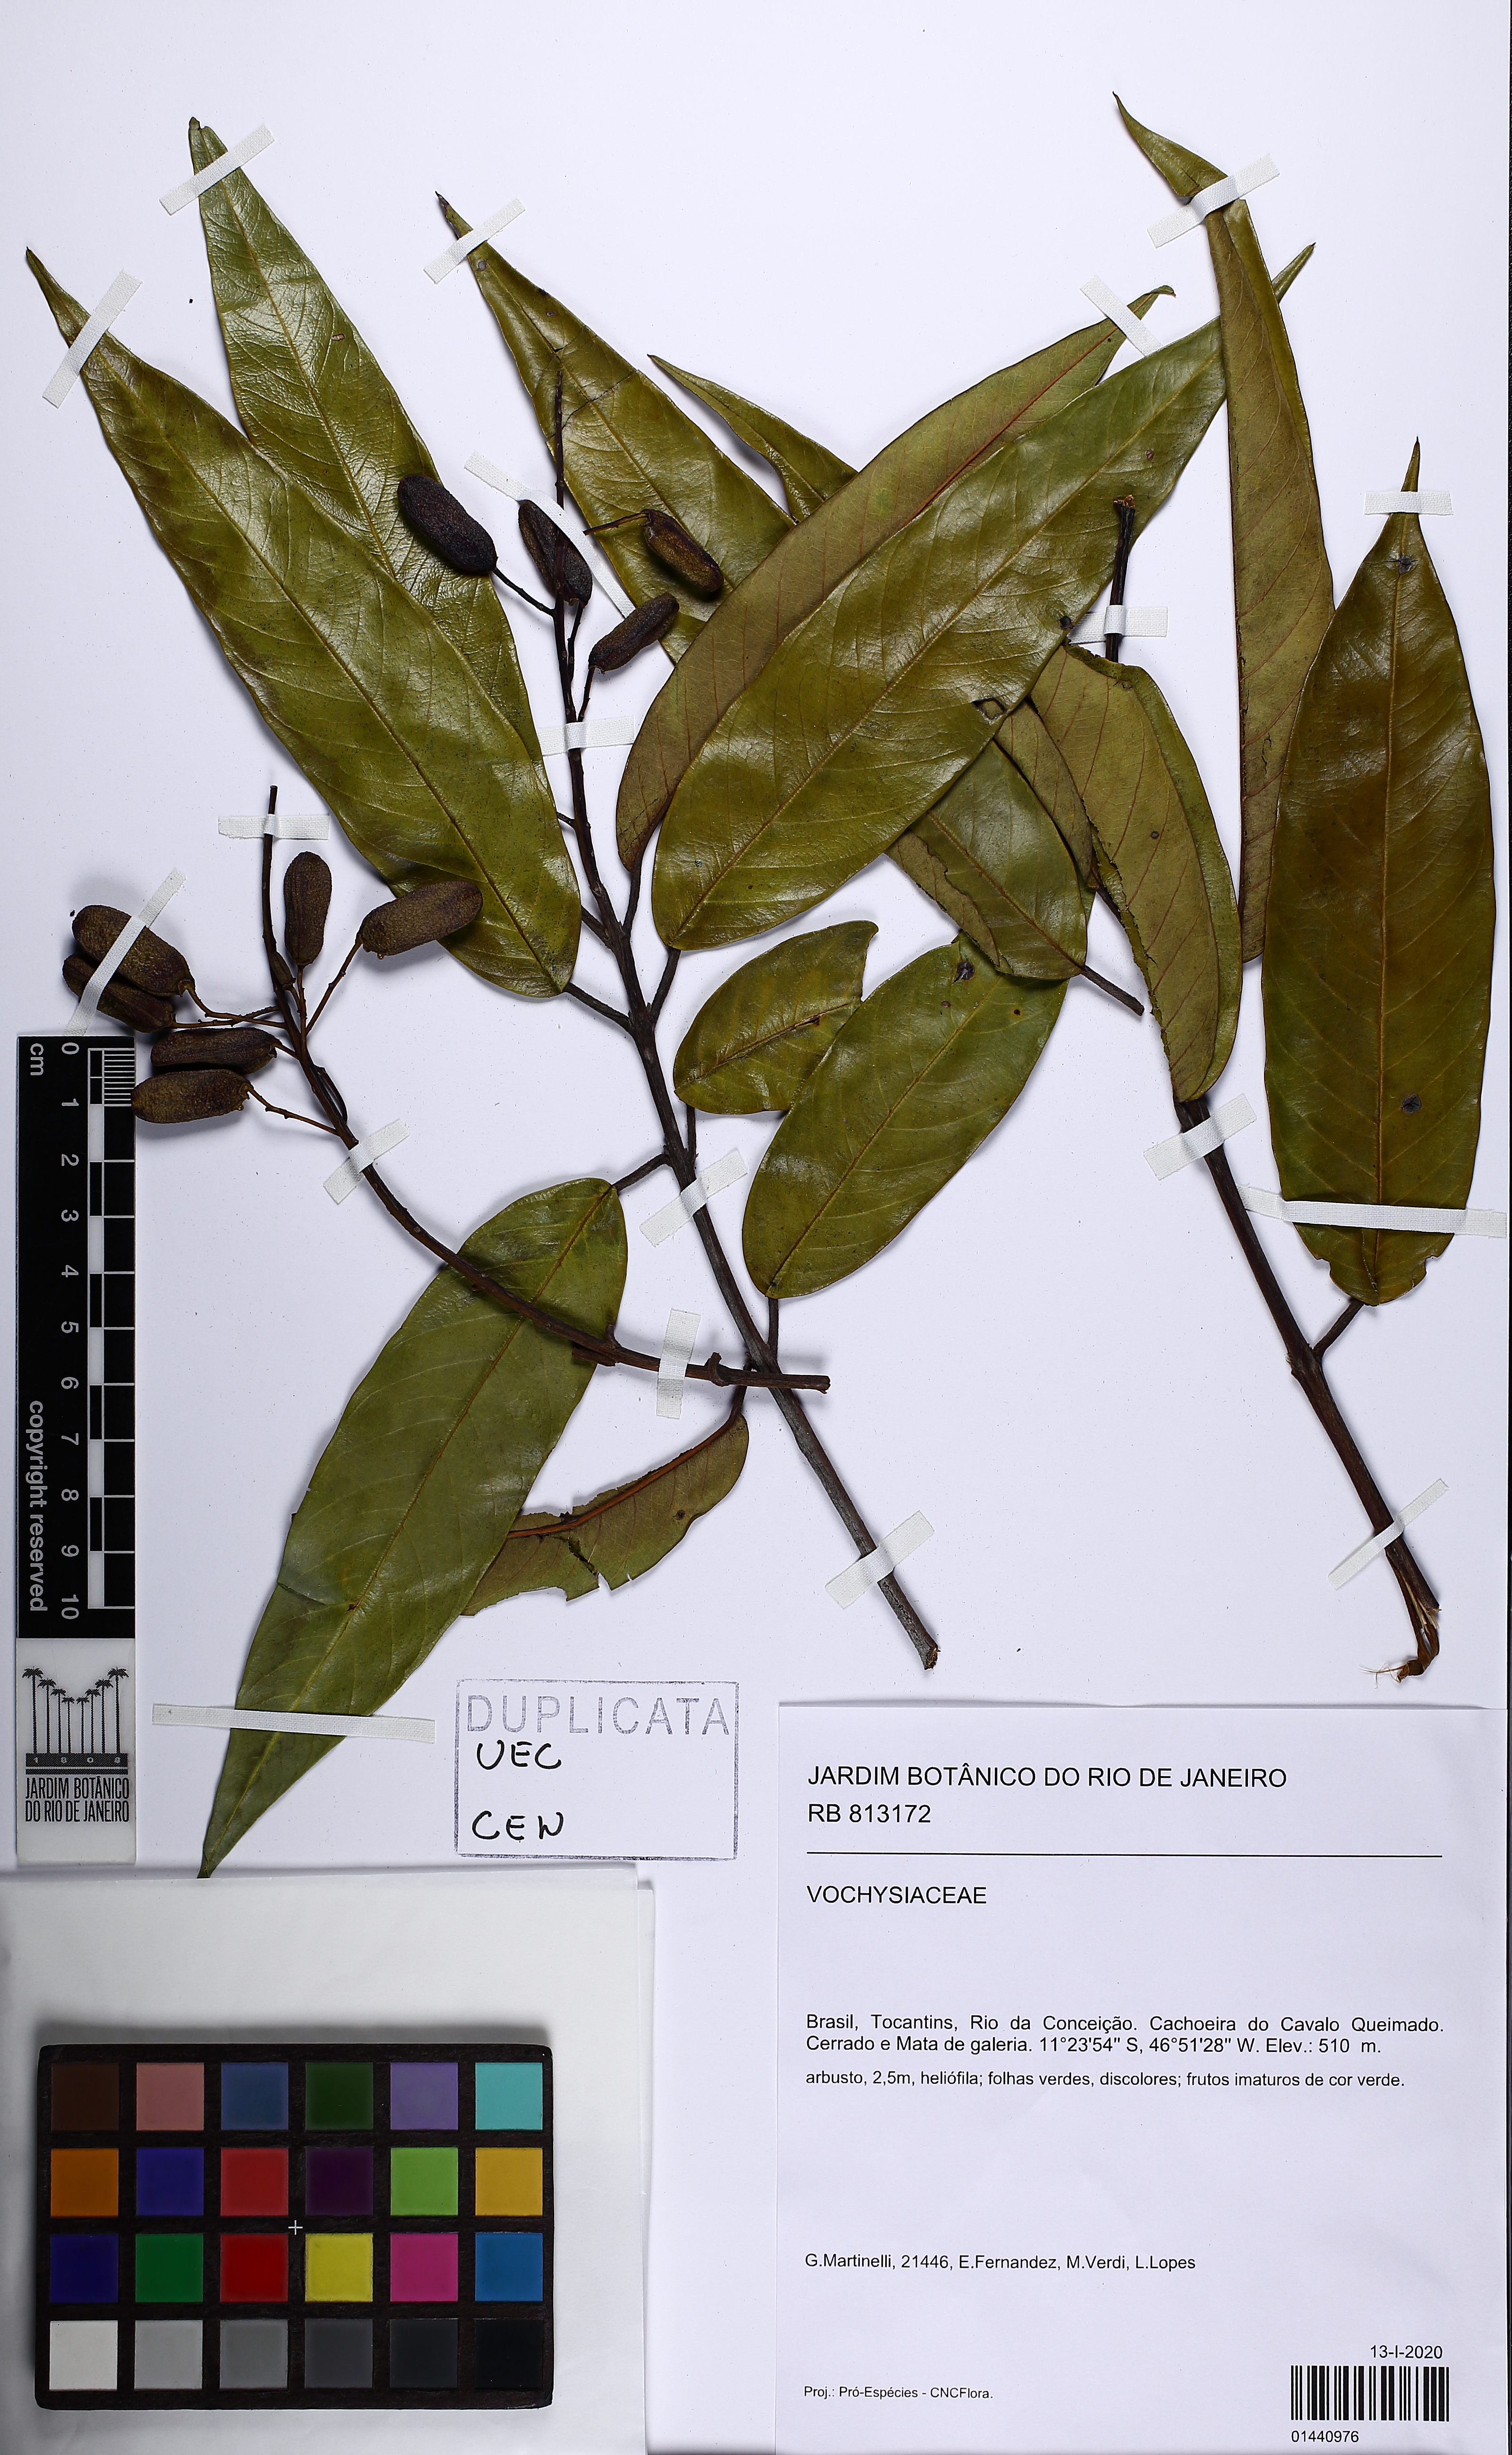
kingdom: Plantae
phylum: Tracheophyta
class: Magnoliopsida
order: Myrtales
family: Vochysiaceae
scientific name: Vochysiaceae
